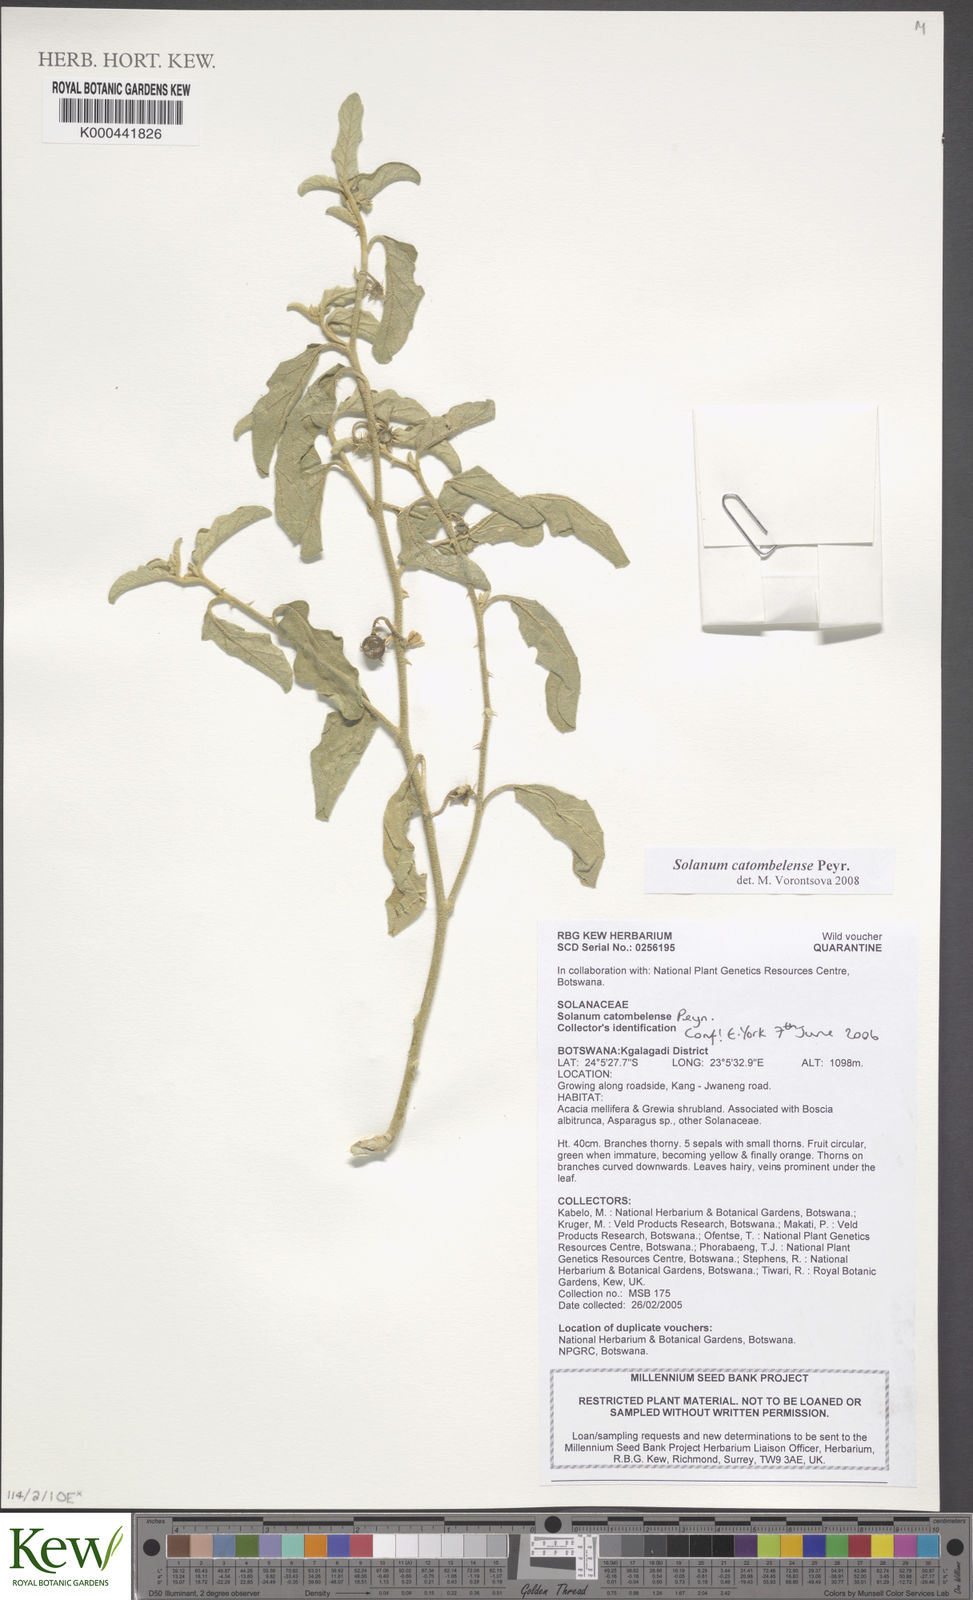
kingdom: Plantae
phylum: Tracheophyta
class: Magnoliopsida
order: Solanales
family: Solanaceae
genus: Solanum
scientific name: Solanum catombelense
